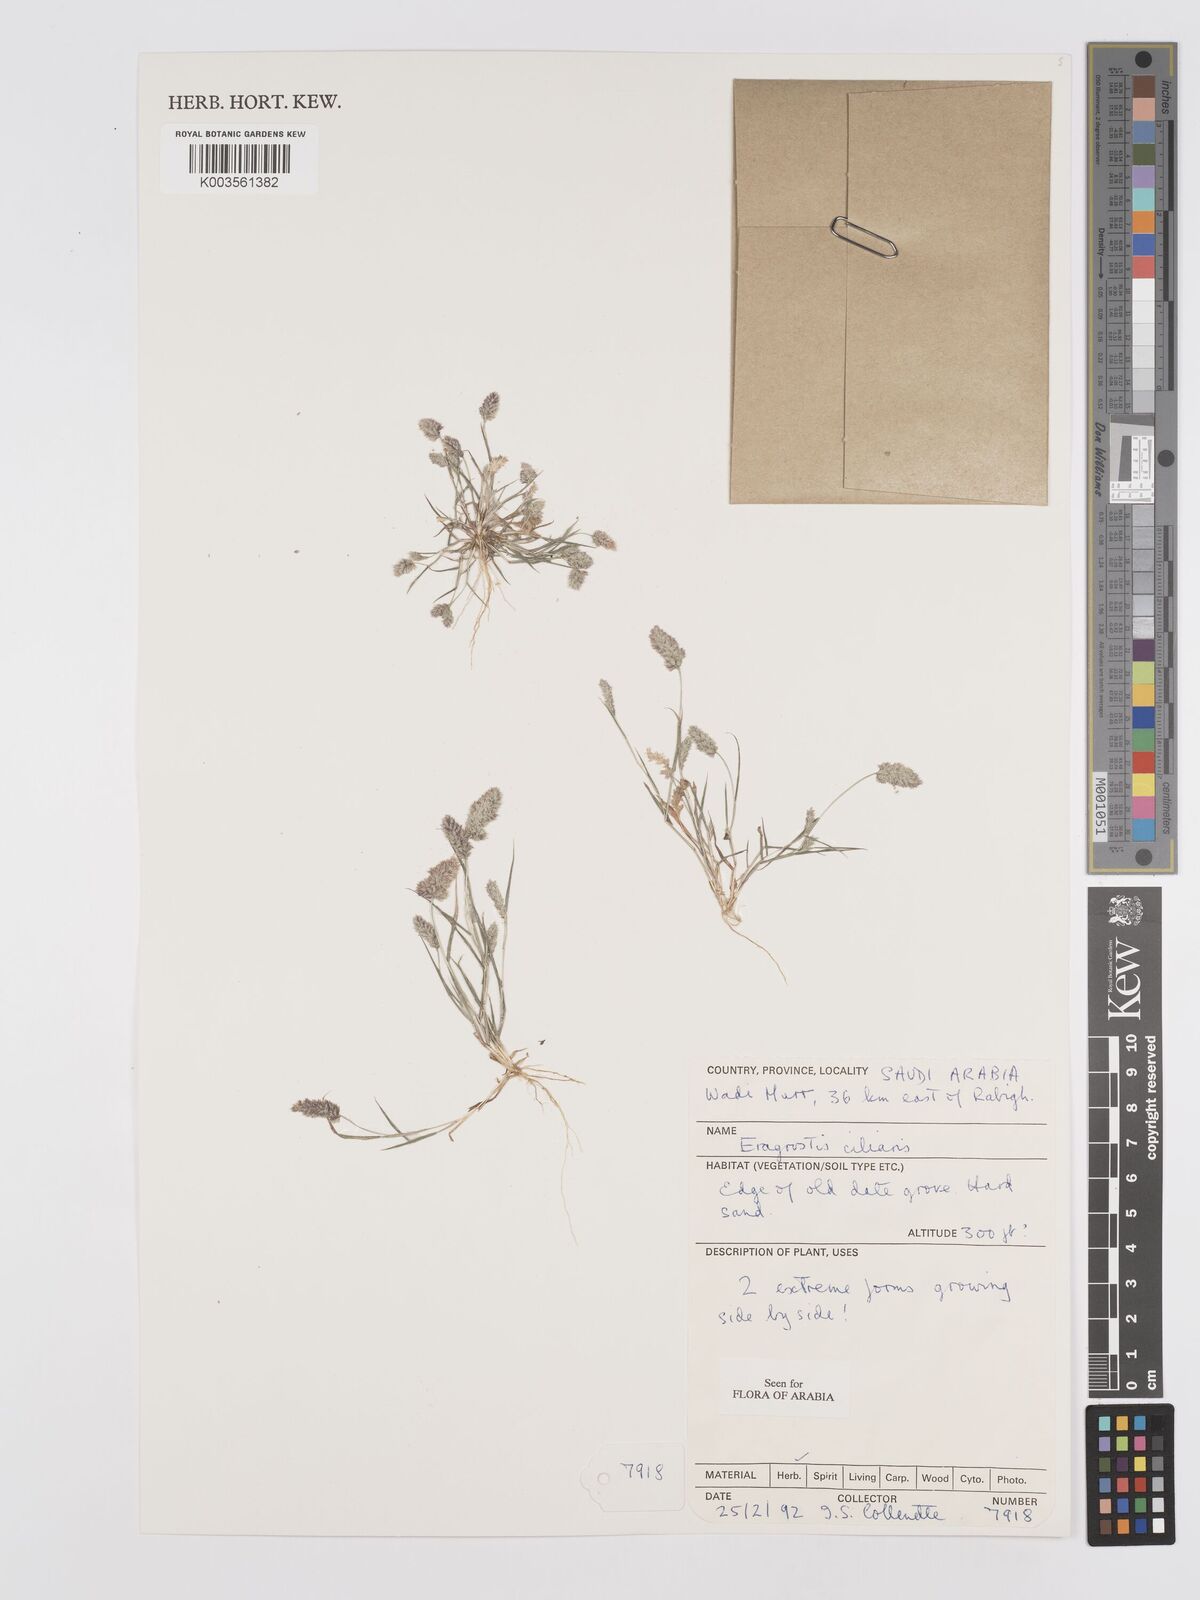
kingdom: Plantae
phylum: Tracheophyta
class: Liliopsida
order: Poales
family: Poaceae
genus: Eragrostis
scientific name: Eragrostis ciliaris
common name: Gophertail lovegrass
